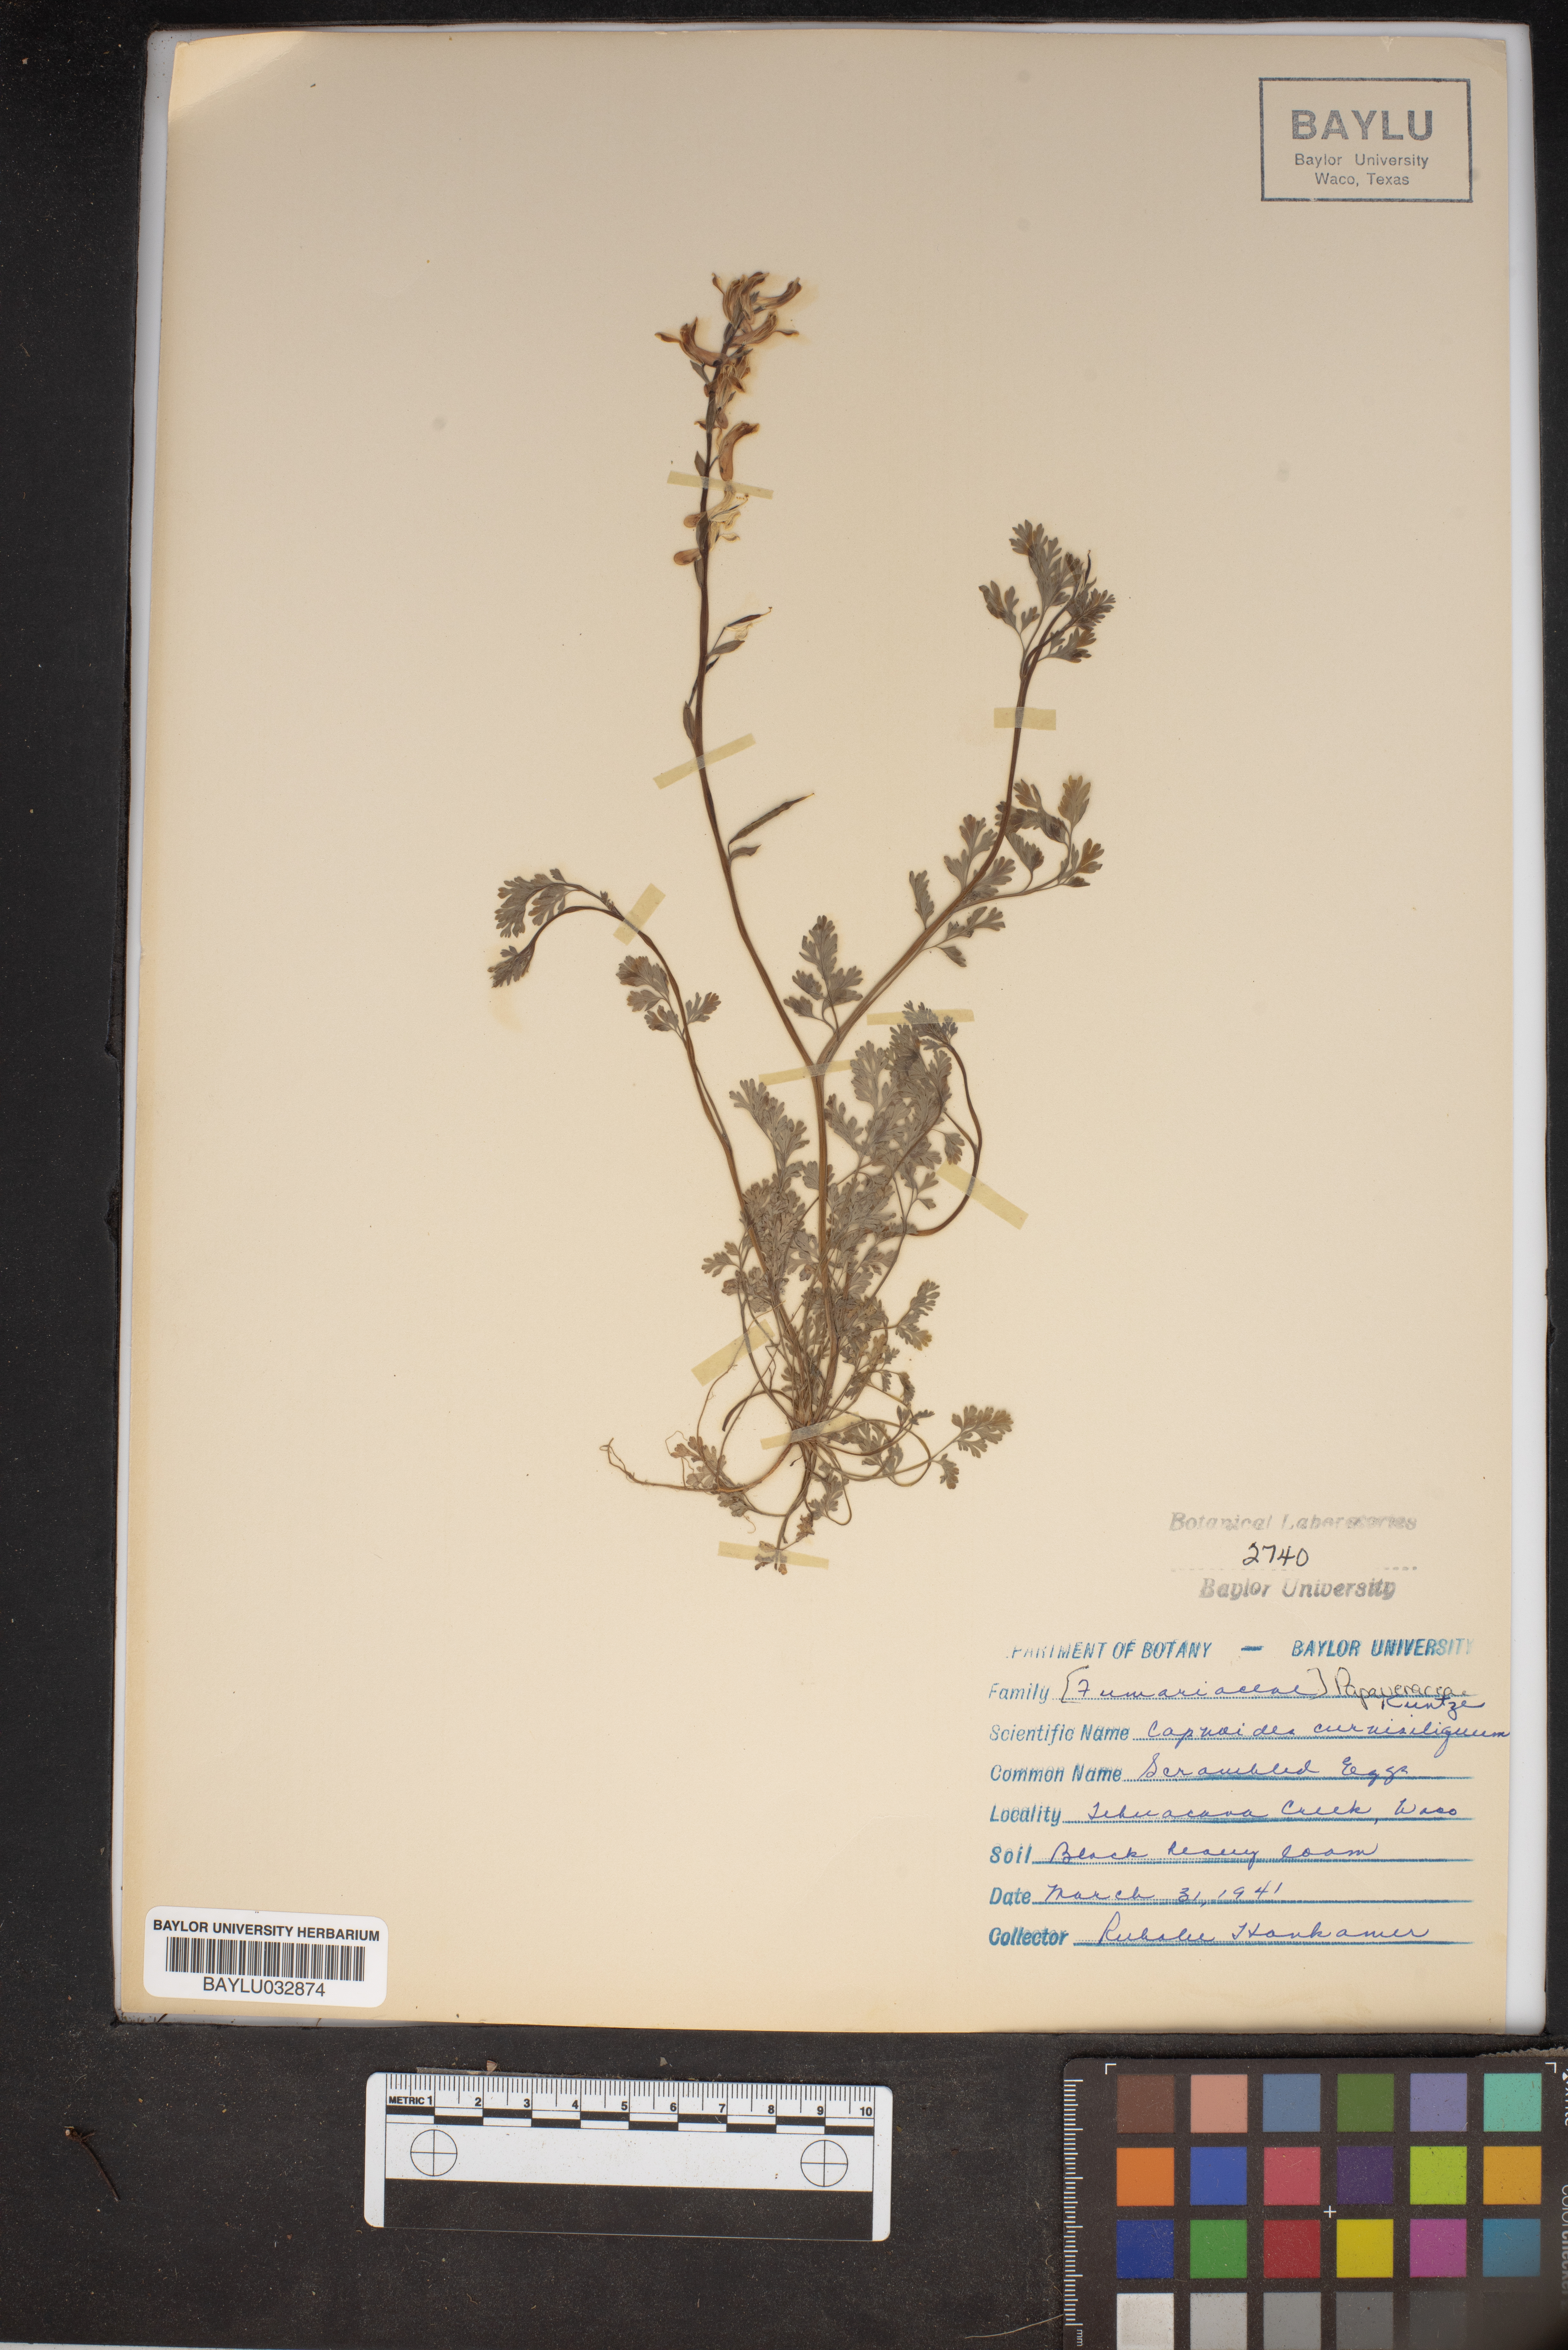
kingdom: Plantae
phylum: Tracheophyta
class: Magnoliopsida
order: Ranunculales
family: Papaveraceae
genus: Corydalis
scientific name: Corydalis curvisiliqua
